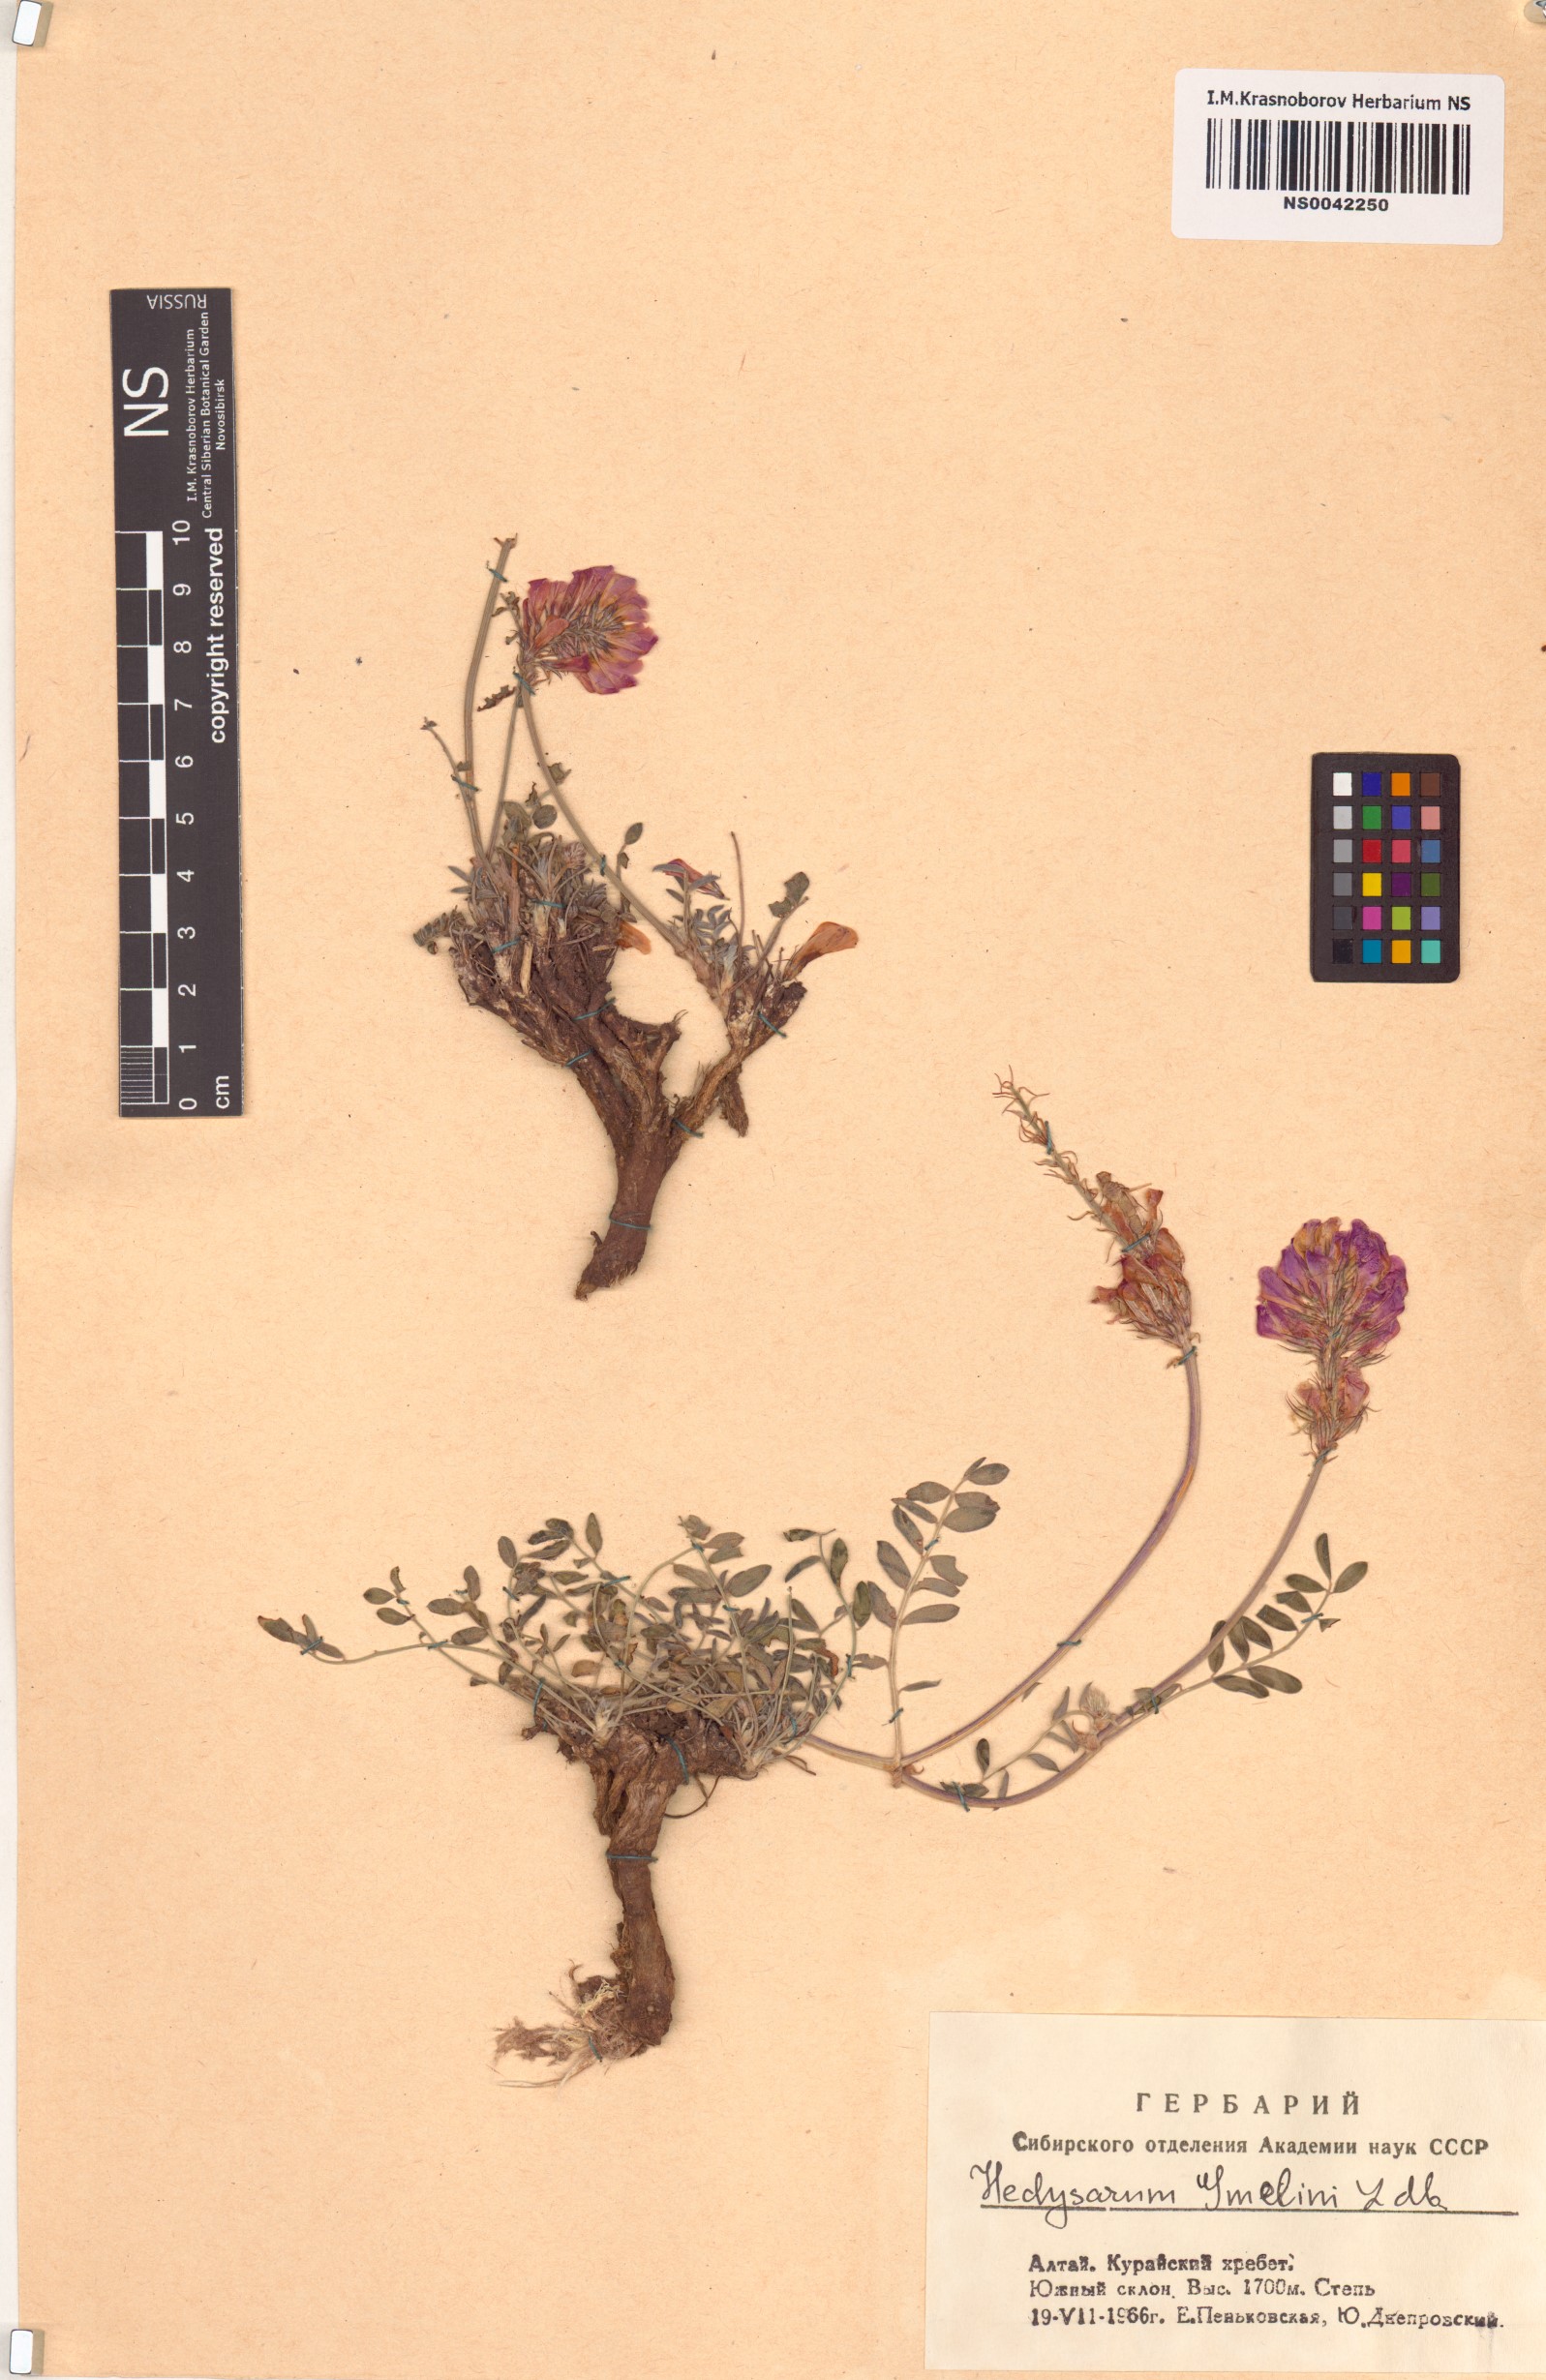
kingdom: Plantae
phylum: Tracheophyta
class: Magnoliopsida
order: Fabales
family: Fabaceae
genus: Hedysarum
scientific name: Hedysarum gmelinii
